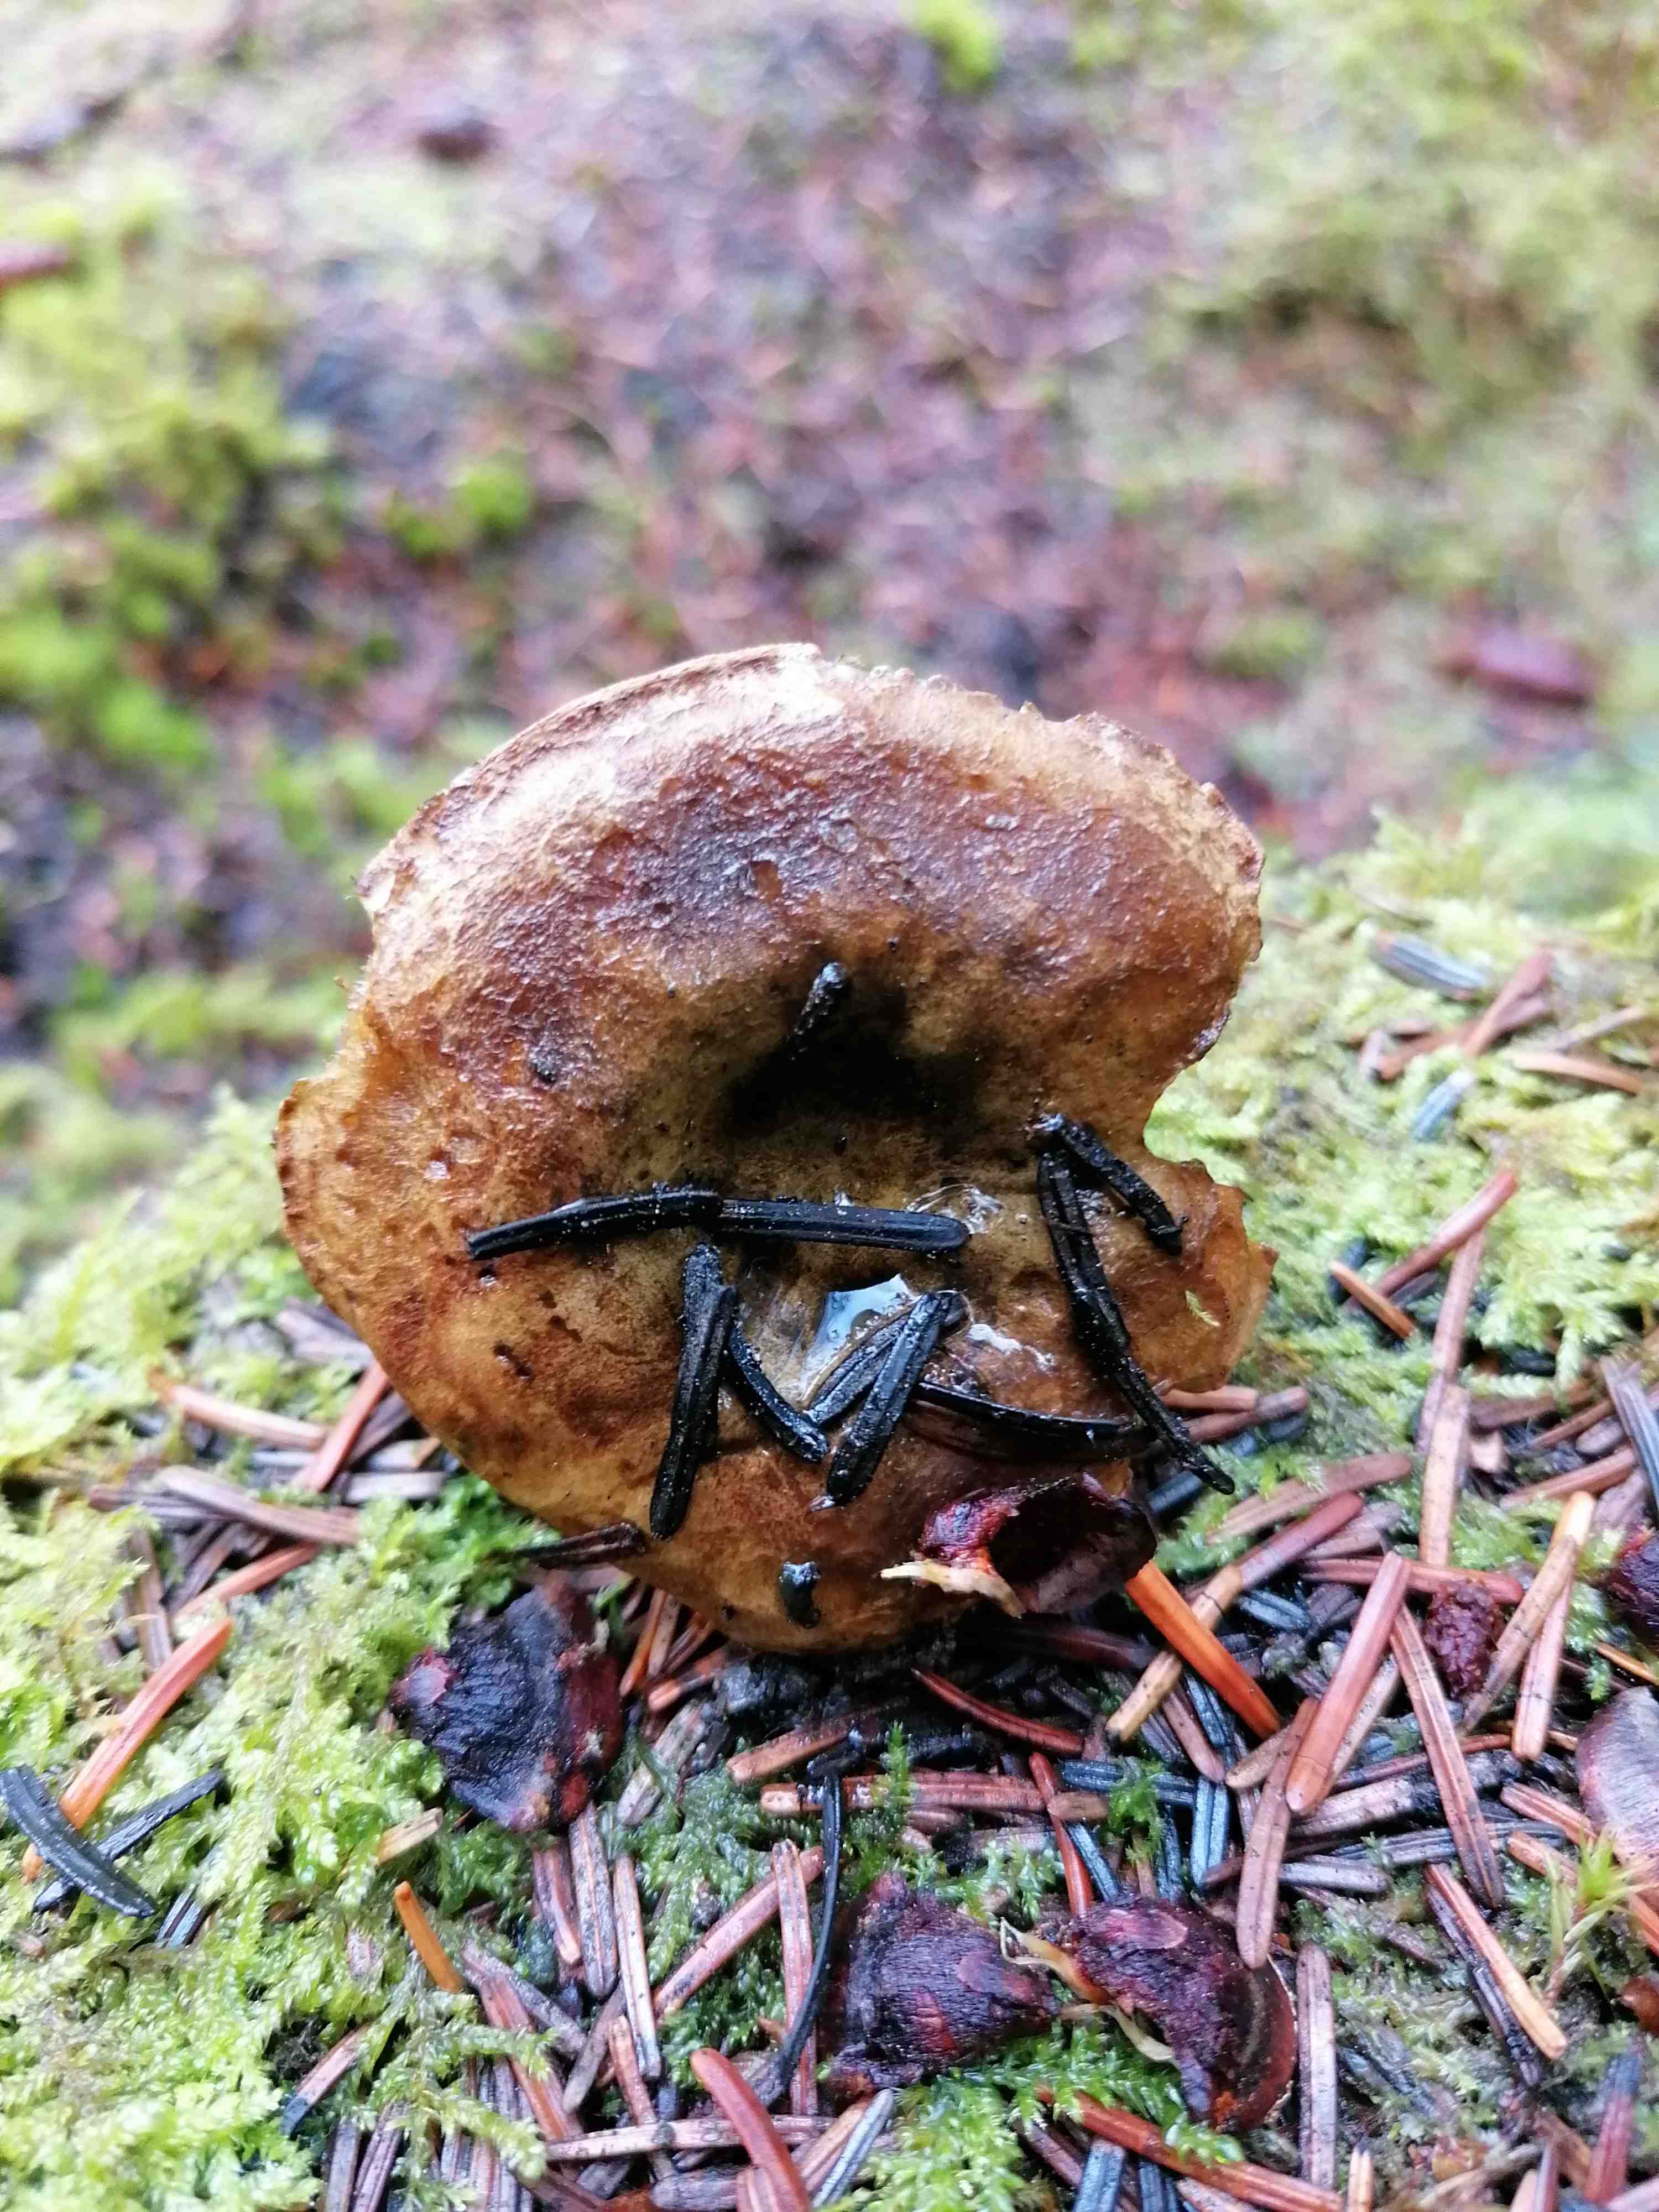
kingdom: Fungi
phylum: Basidiomycota
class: Agaricomycetes
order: Russulales
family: Russulaceae
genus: Lactarius
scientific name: Lactarius necator
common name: manddraber-mælkehat
